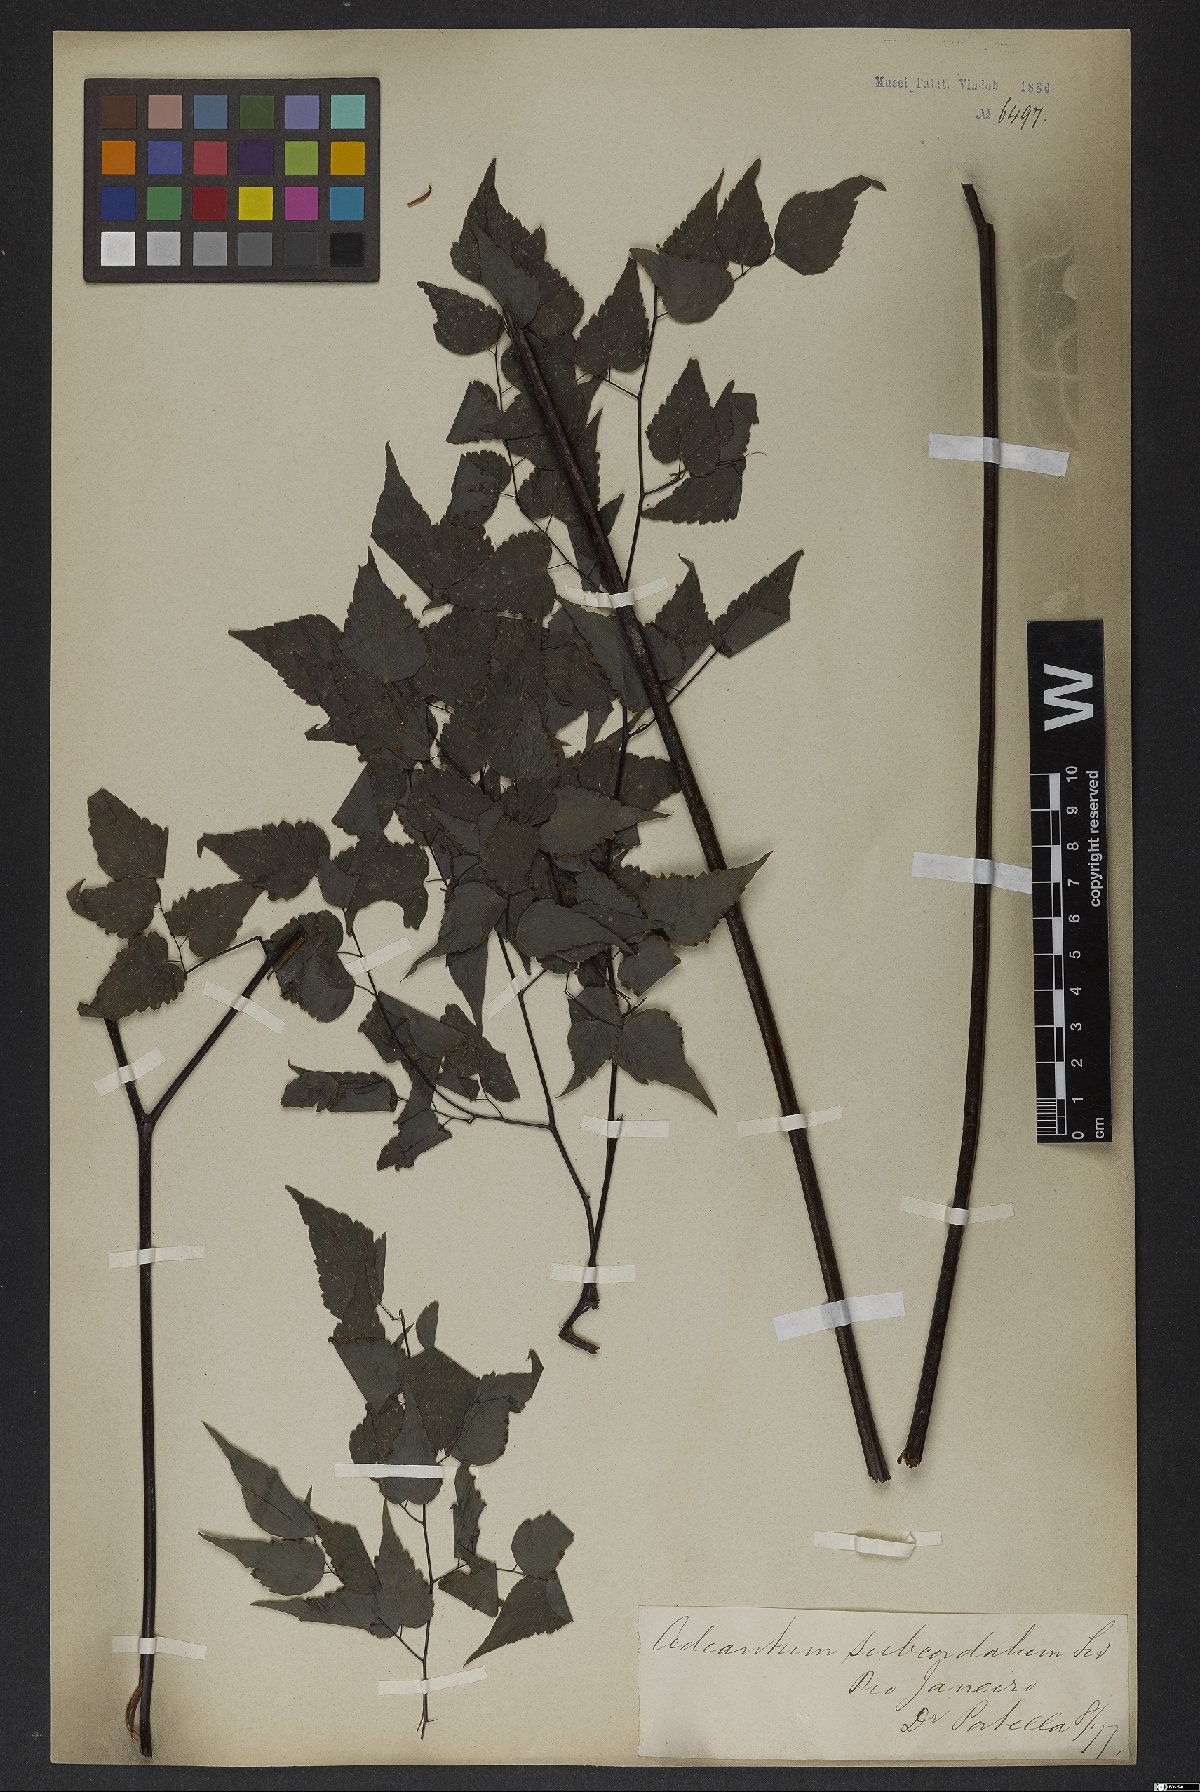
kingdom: Plantae
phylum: Tracheophyta
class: Polypodiopsida
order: Polypodiales
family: Pteridaceae
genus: Adiantum
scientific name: Adiantum subcordatum
